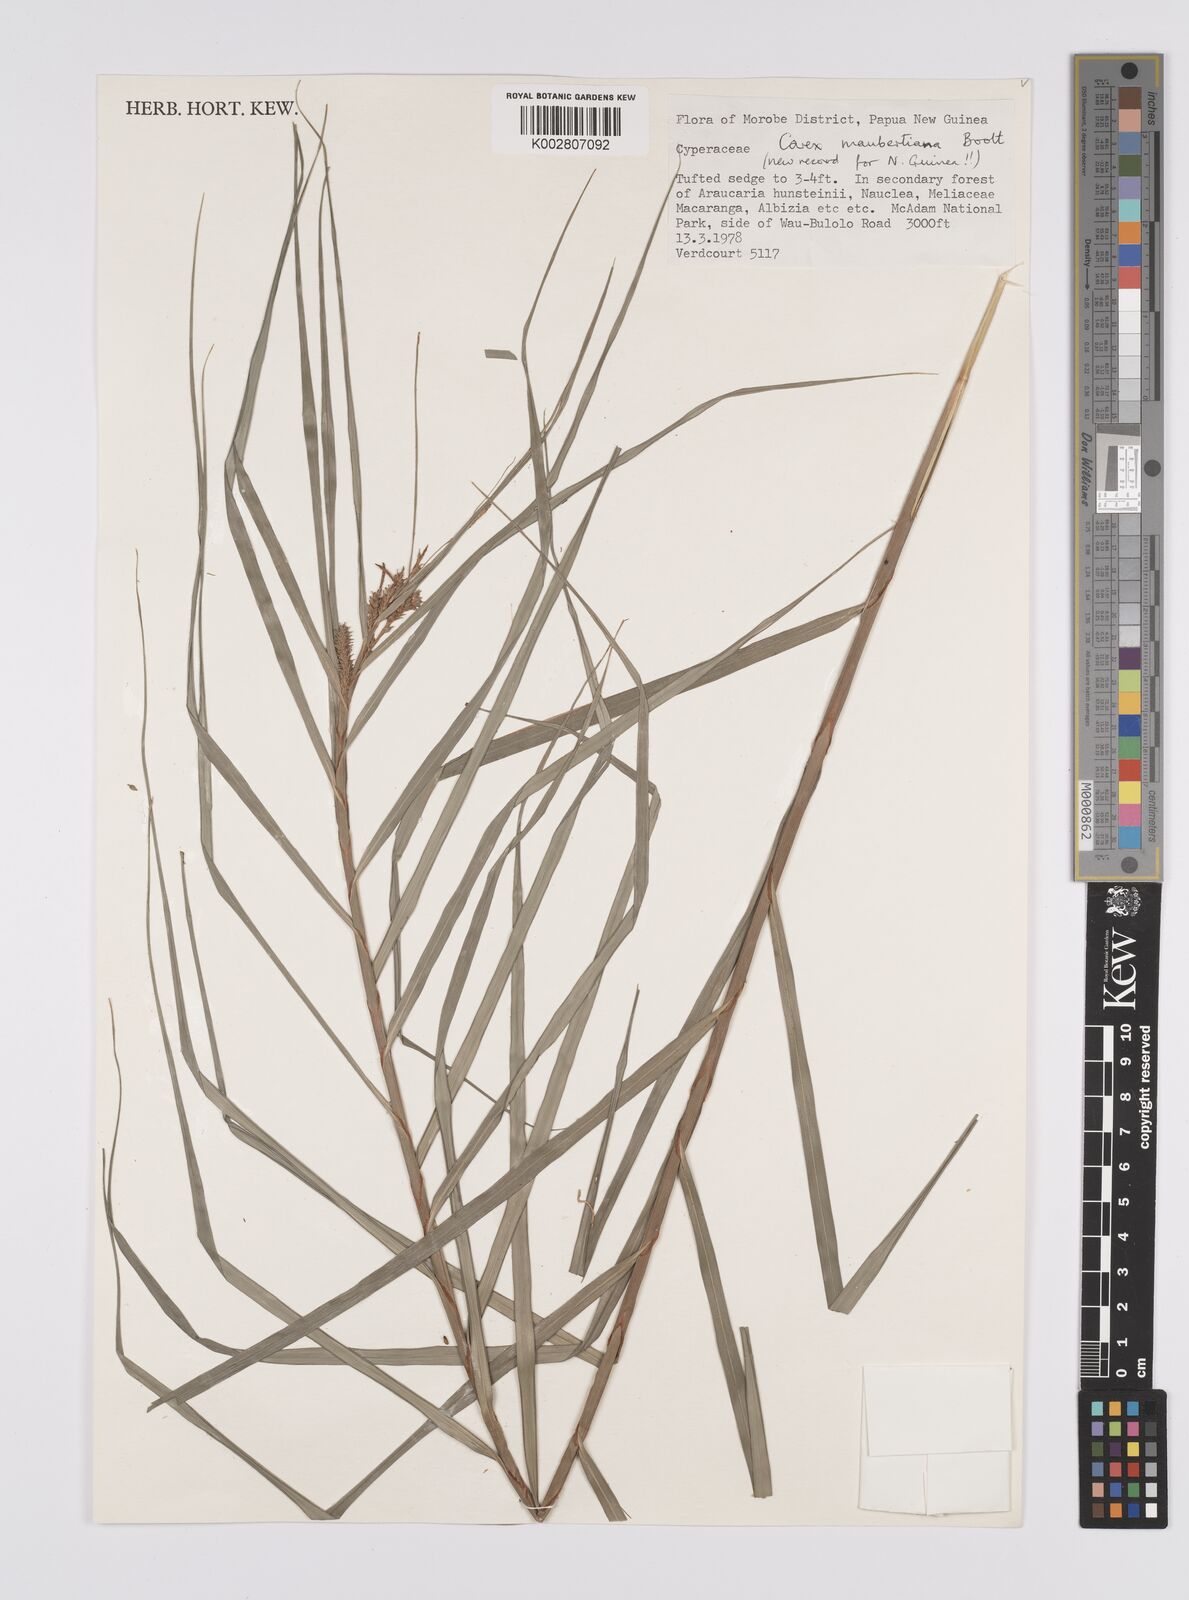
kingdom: Plantae
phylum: Tracheophyta
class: Liliopsida
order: Poales
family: Cyperaceae
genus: Carex
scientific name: Carex maubertiana
